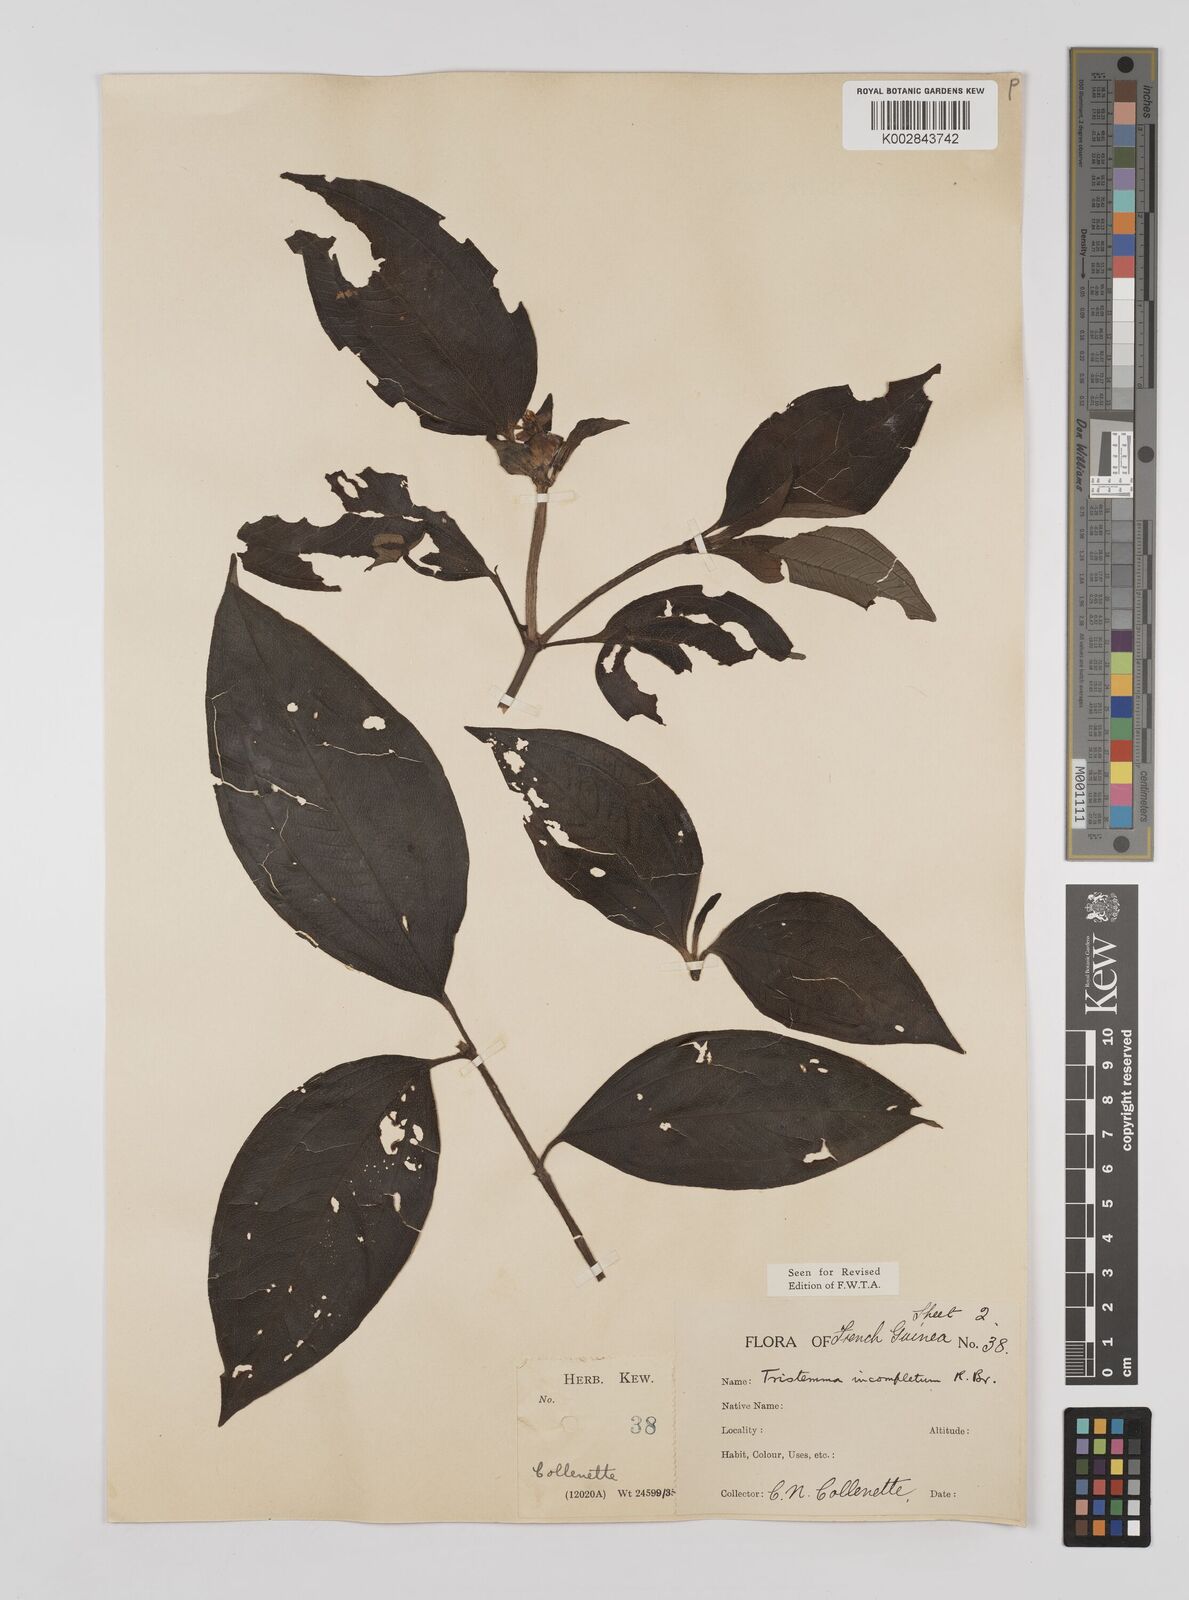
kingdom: Plantae
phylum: Tracheophyta
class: Magnoliopsida
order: Myrtales
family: Melastomataceae
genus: Tristemma
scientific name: Tristemma mauritianum
